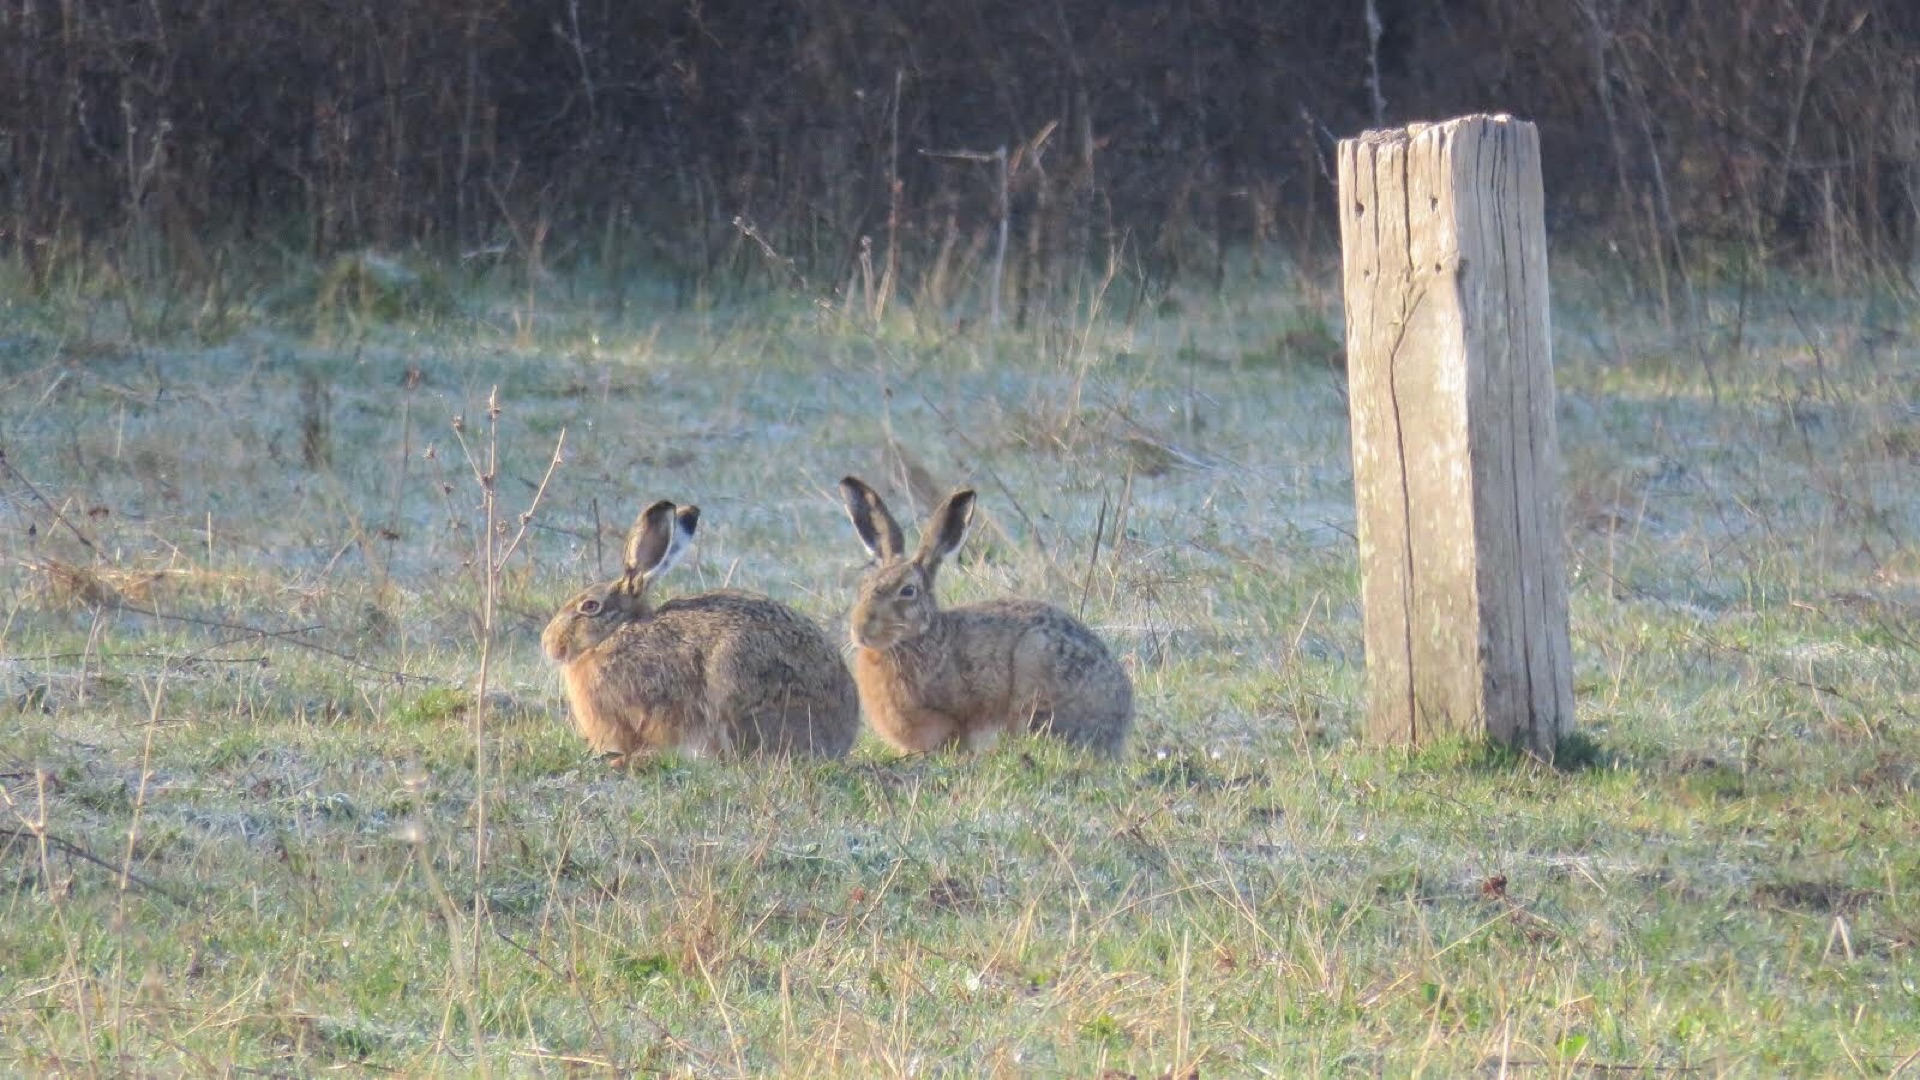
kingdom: Animalia
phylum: Chordata
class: Mammalia
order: Lagomorpha
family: Leporidae
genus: Lepus
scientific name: Lepus europaeus
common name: Hare
